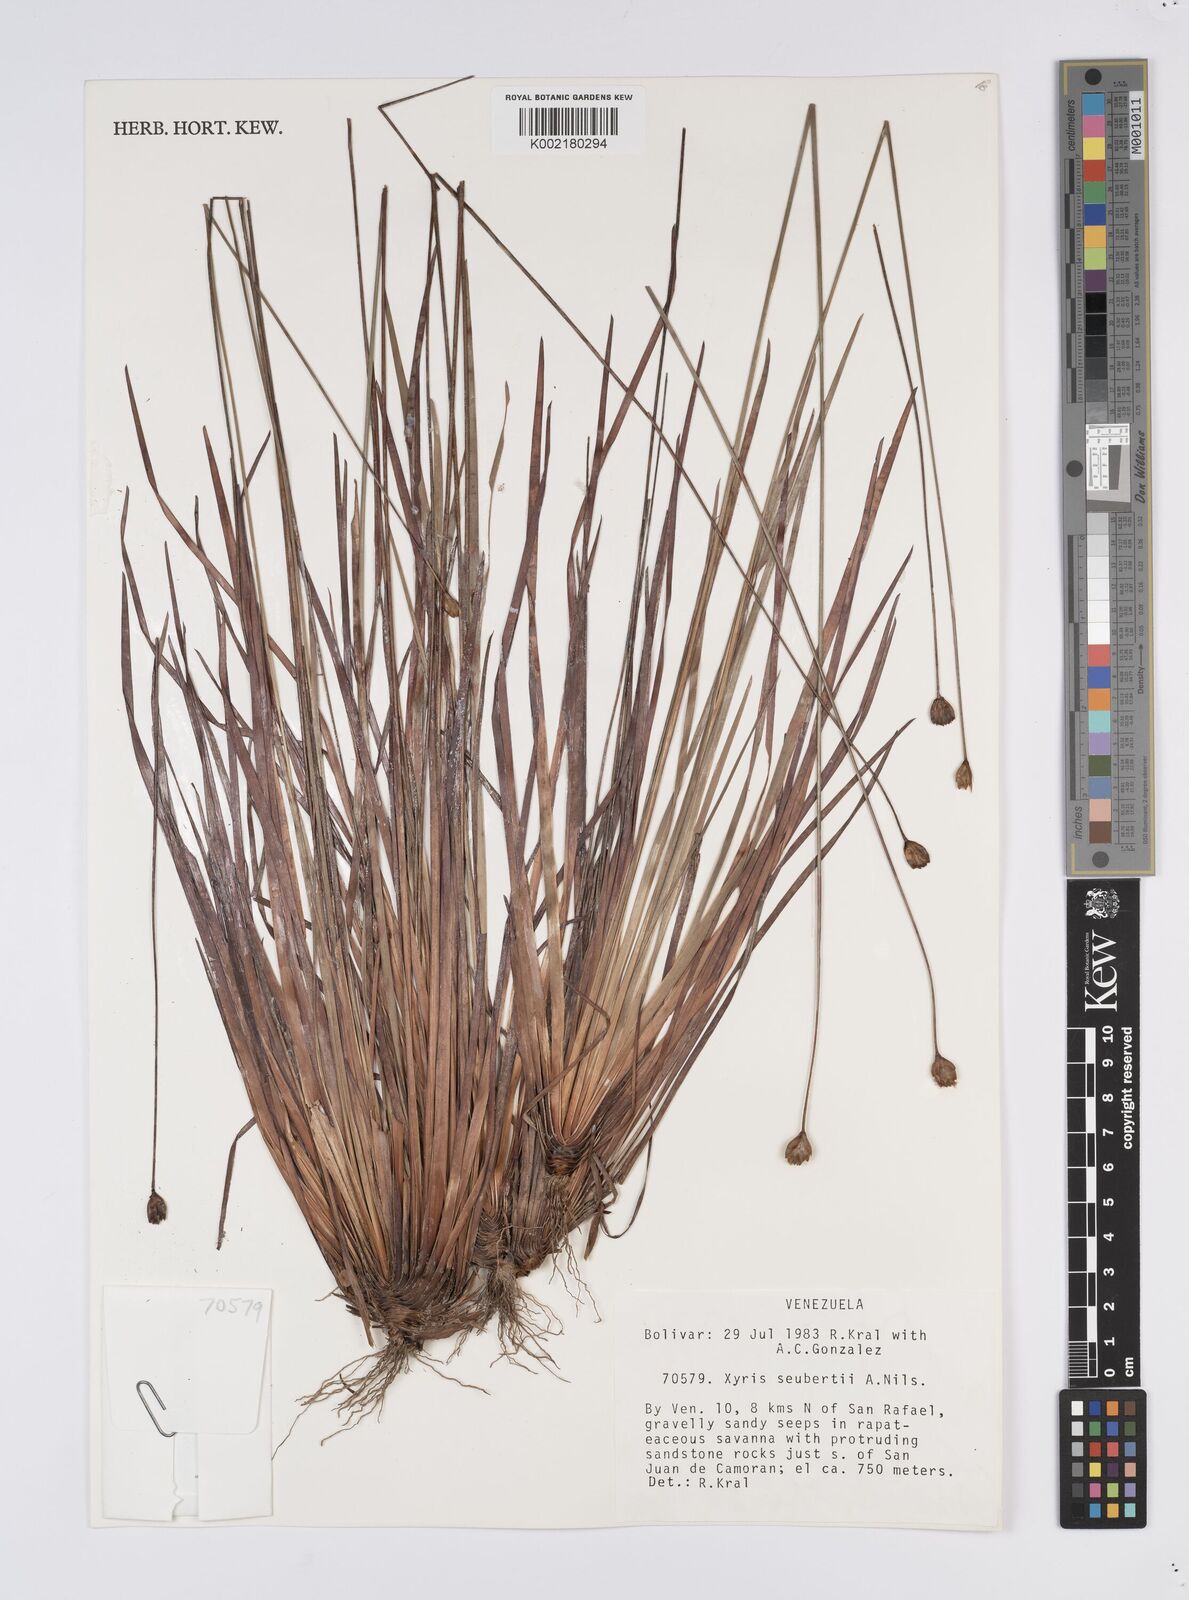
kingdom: Plantae
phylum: Tracheophyta
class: Liliopsida
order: Poales
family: Xyridaceae
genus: Xyris
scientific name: Xyris seubertii
